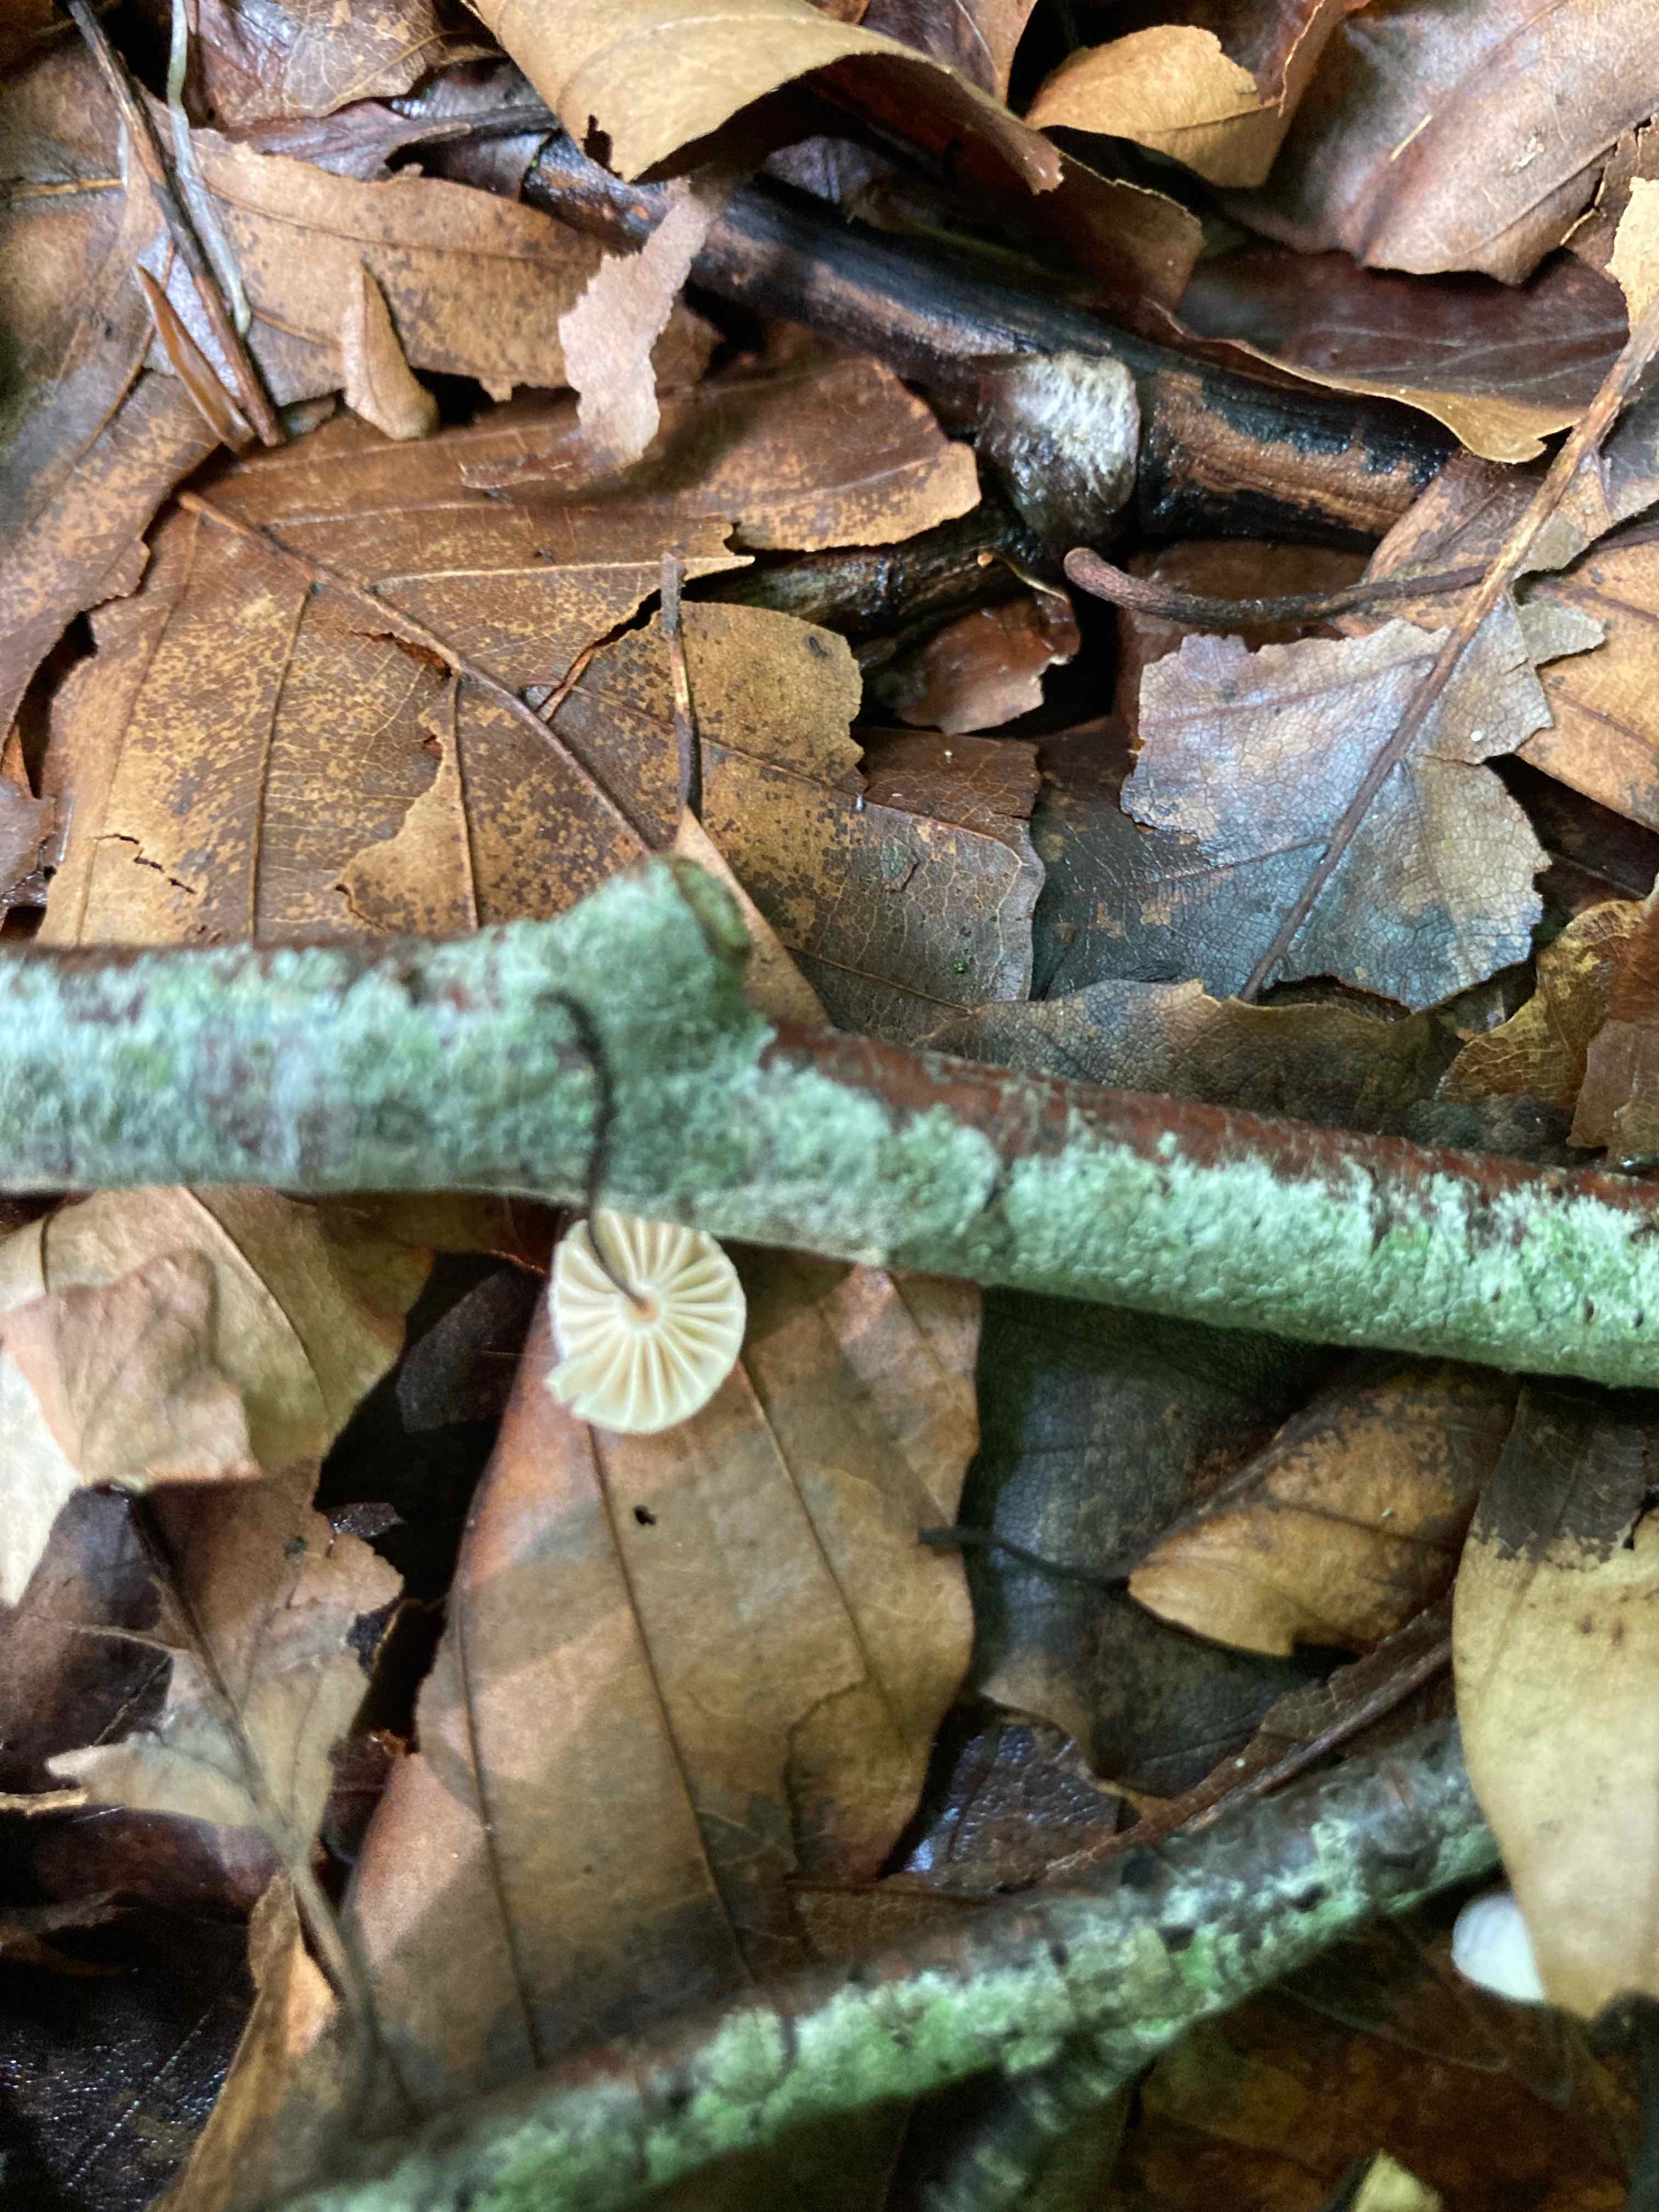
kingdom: Fungi
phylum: Basidiomycota
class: Agaricomycetes
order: Agaricales
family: Marasmiaceae
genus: Marasmius
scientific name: Marasmius rotula
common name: hjul-bruskhat
